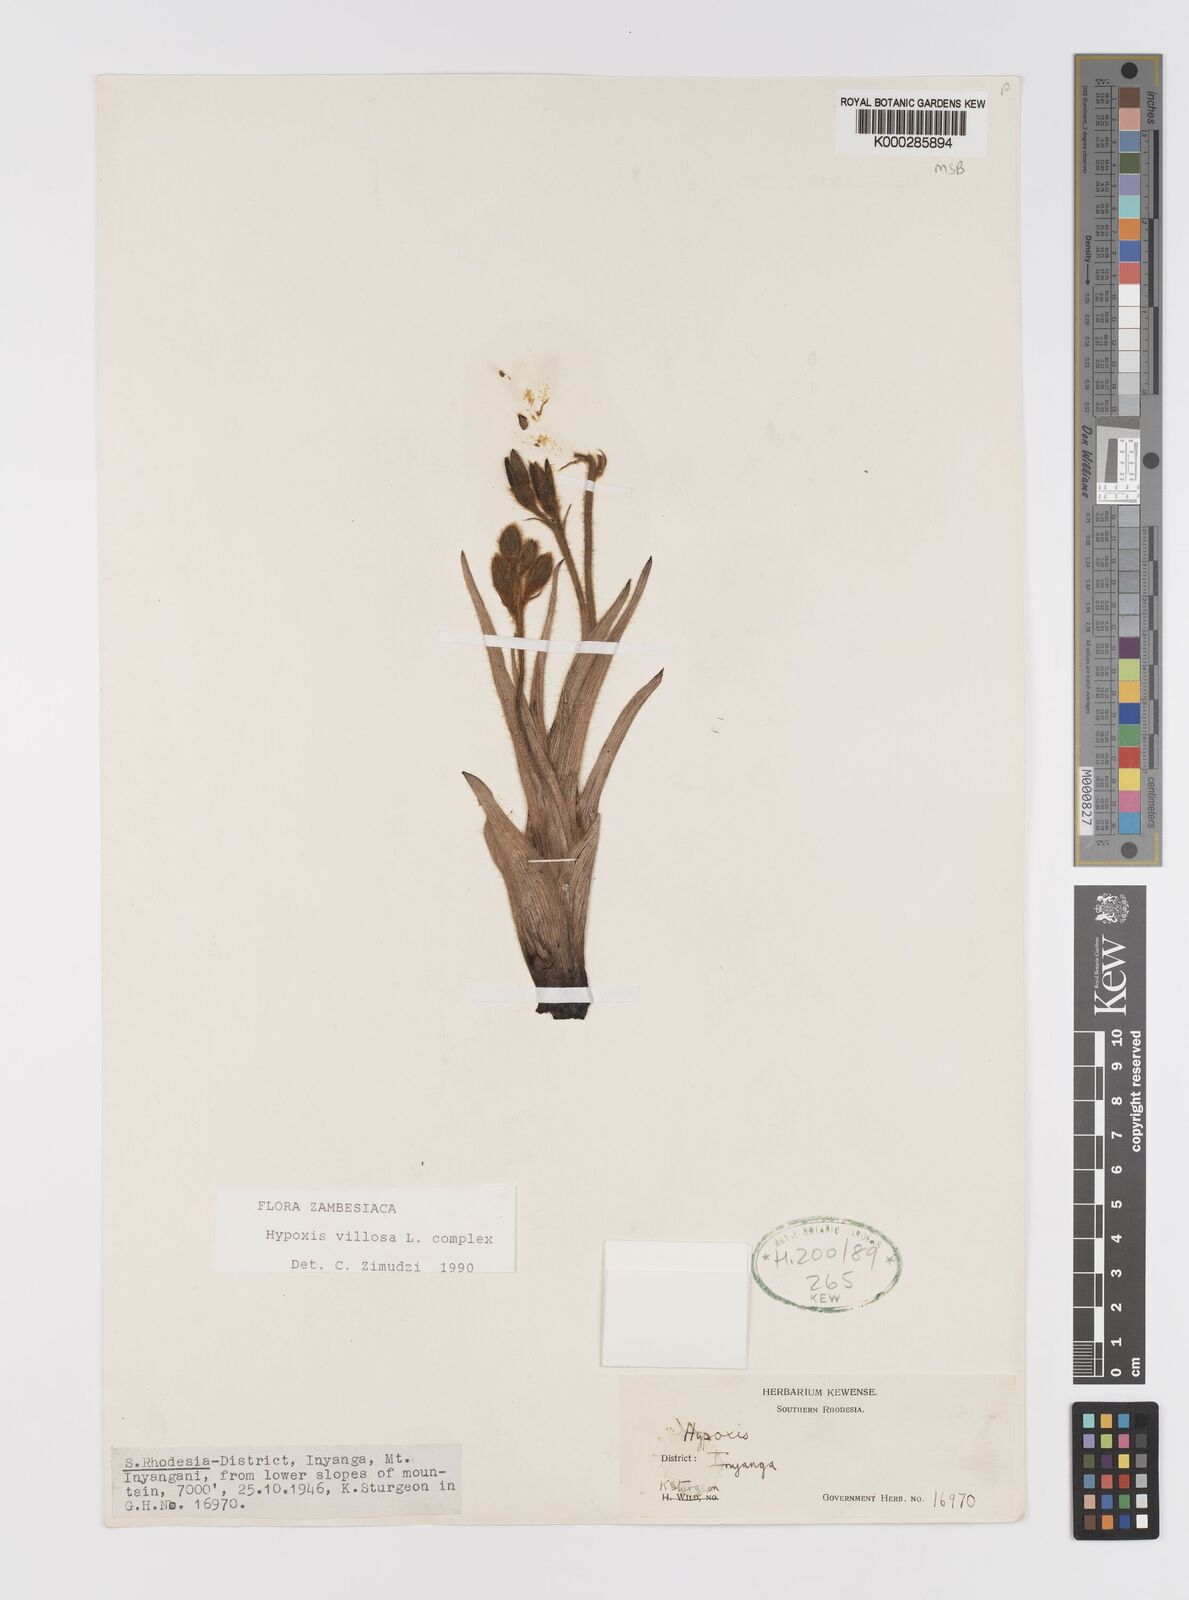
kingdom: Plantae
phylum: Tracheophyta
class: Liliopsida
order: Asparagales
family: Hypoxidaceae
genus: Hypoxis
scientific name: Hypoxis
